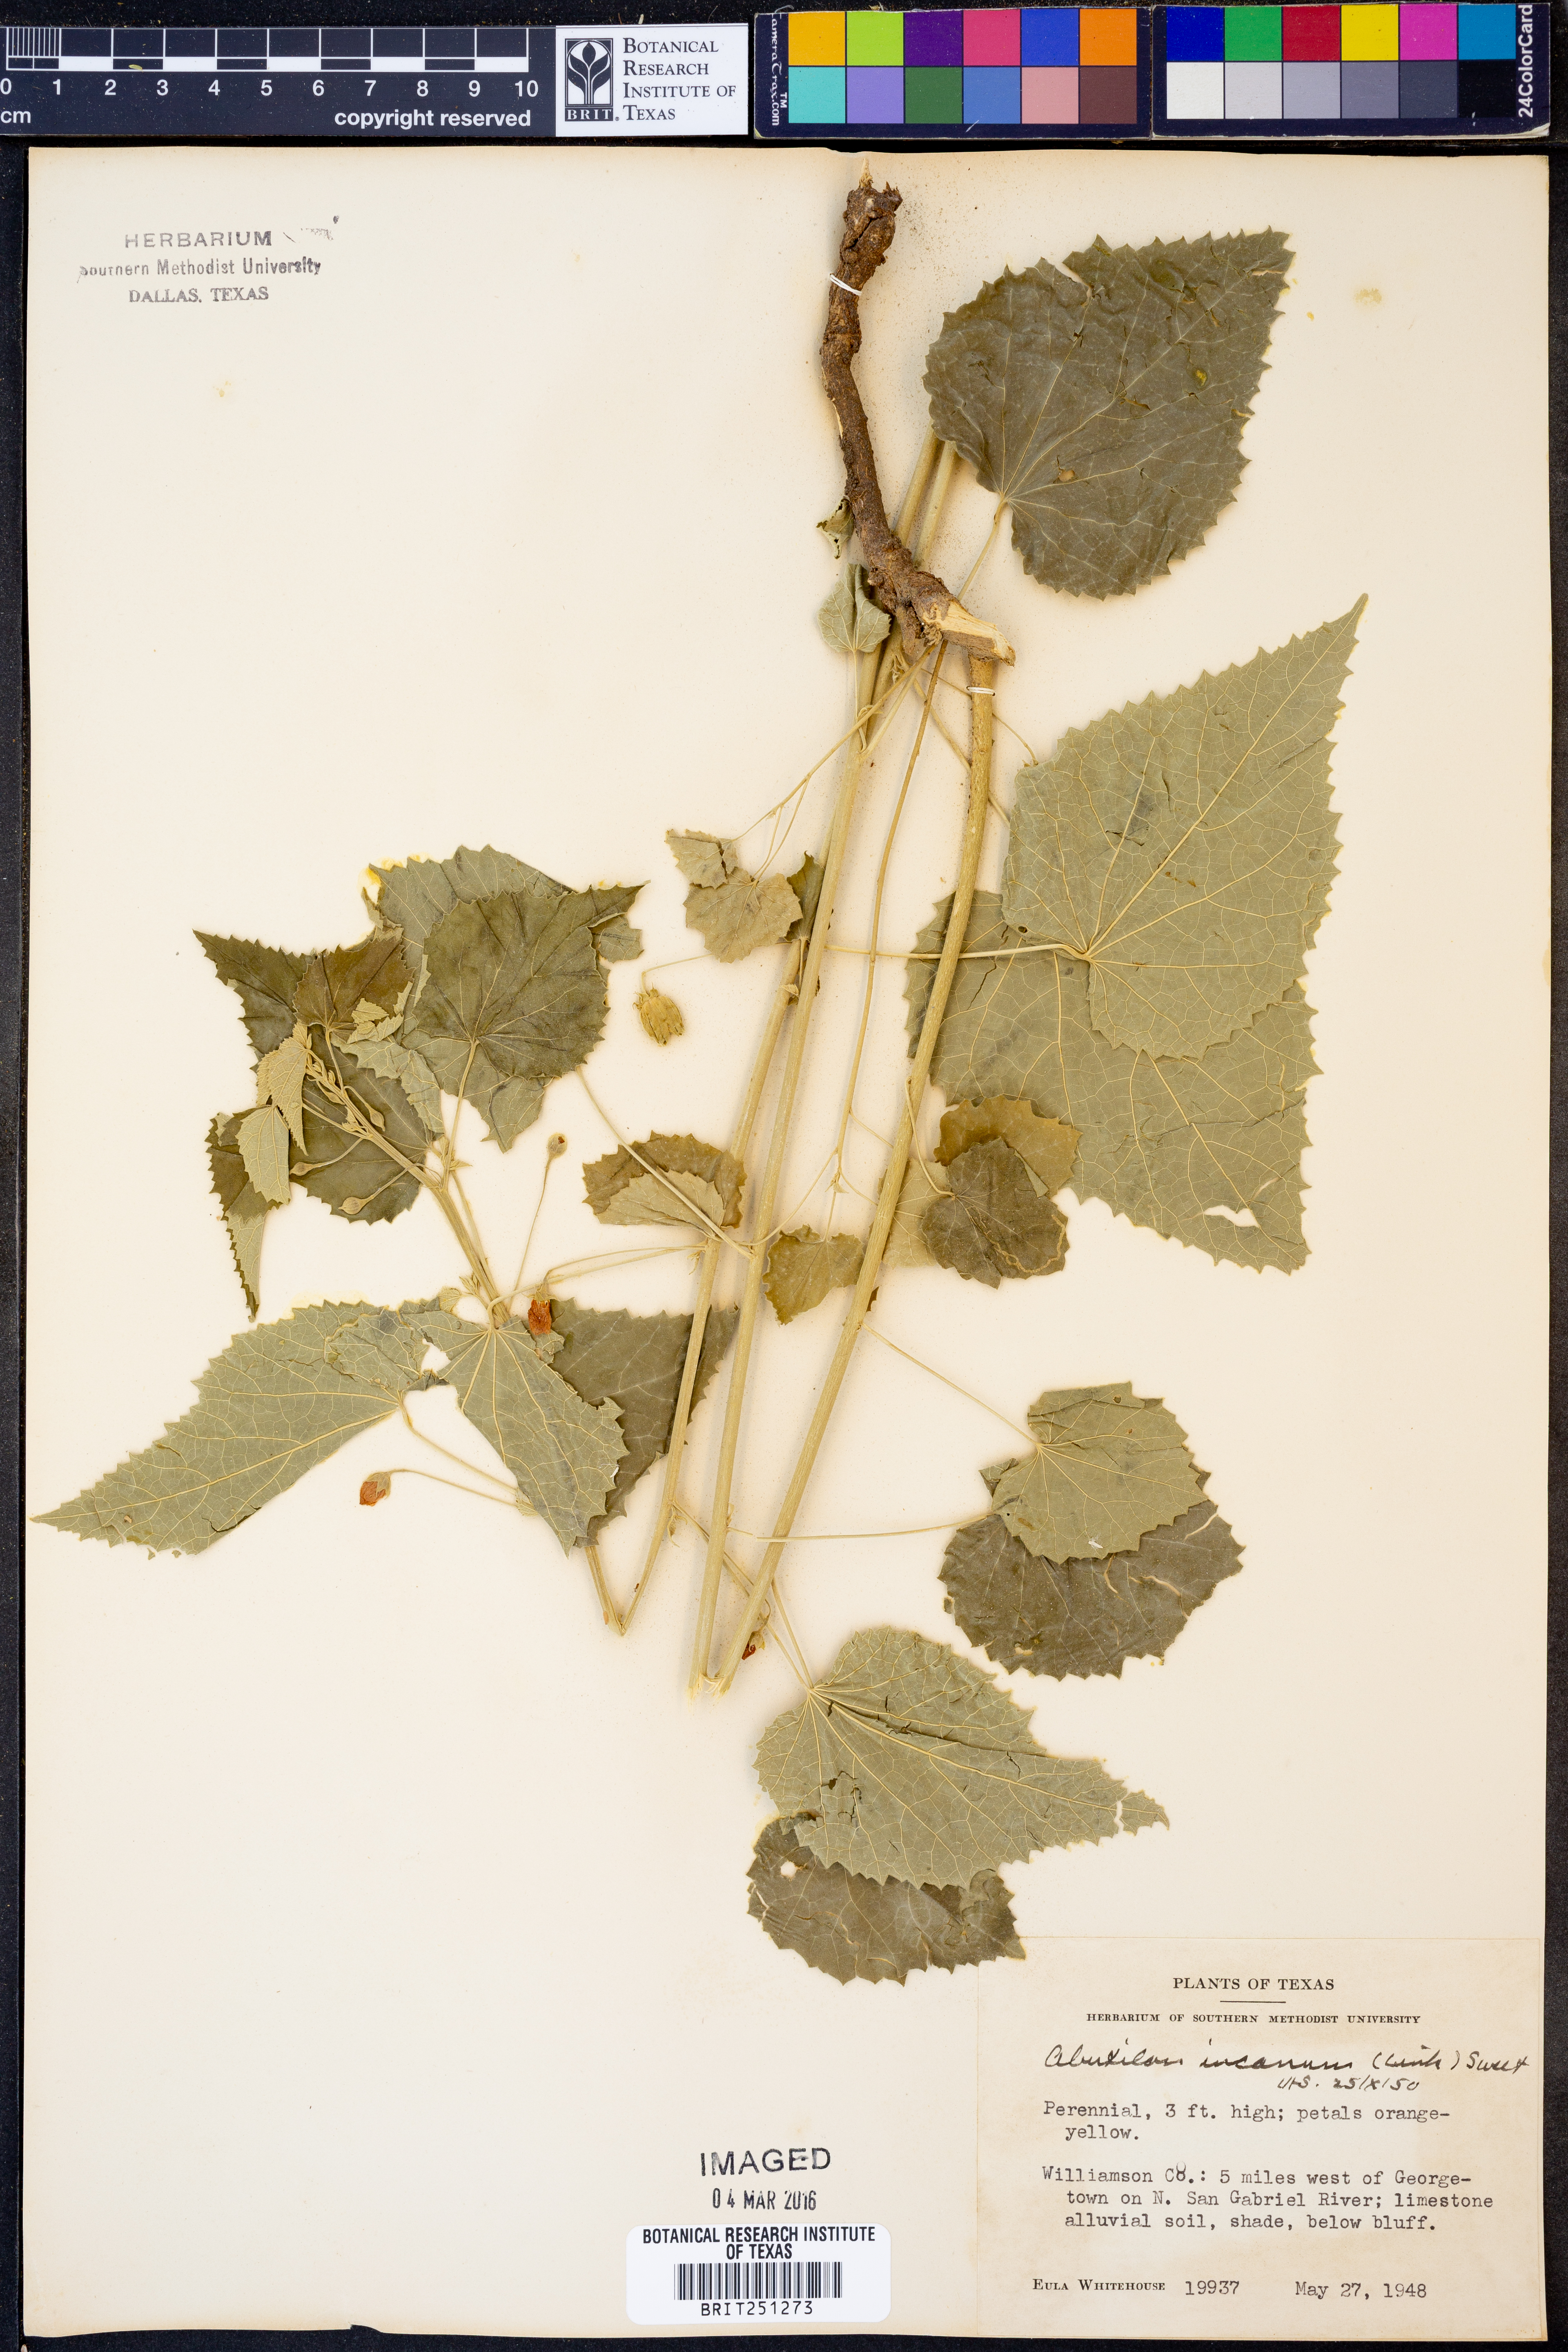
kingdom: Plantae
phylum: Tracheophyta
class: Magnoliopsida
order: Malvales
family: Malvaceae
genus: Abutilon
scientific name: Abutilon incanum
